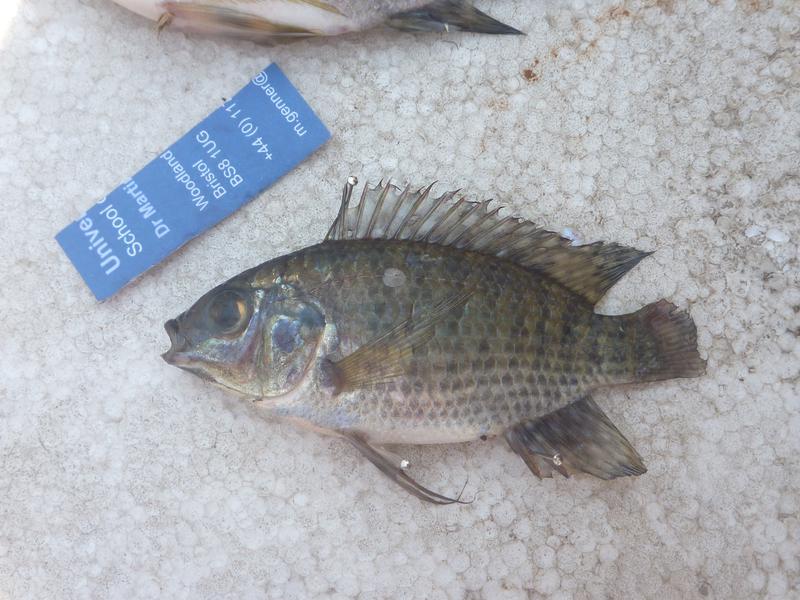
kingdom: Animalia
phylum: Chordata
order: Perciformes
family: Cichlidae
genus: Oreochromis
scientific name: Oreochromis leucostictus
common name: Blue spotted tilapia
